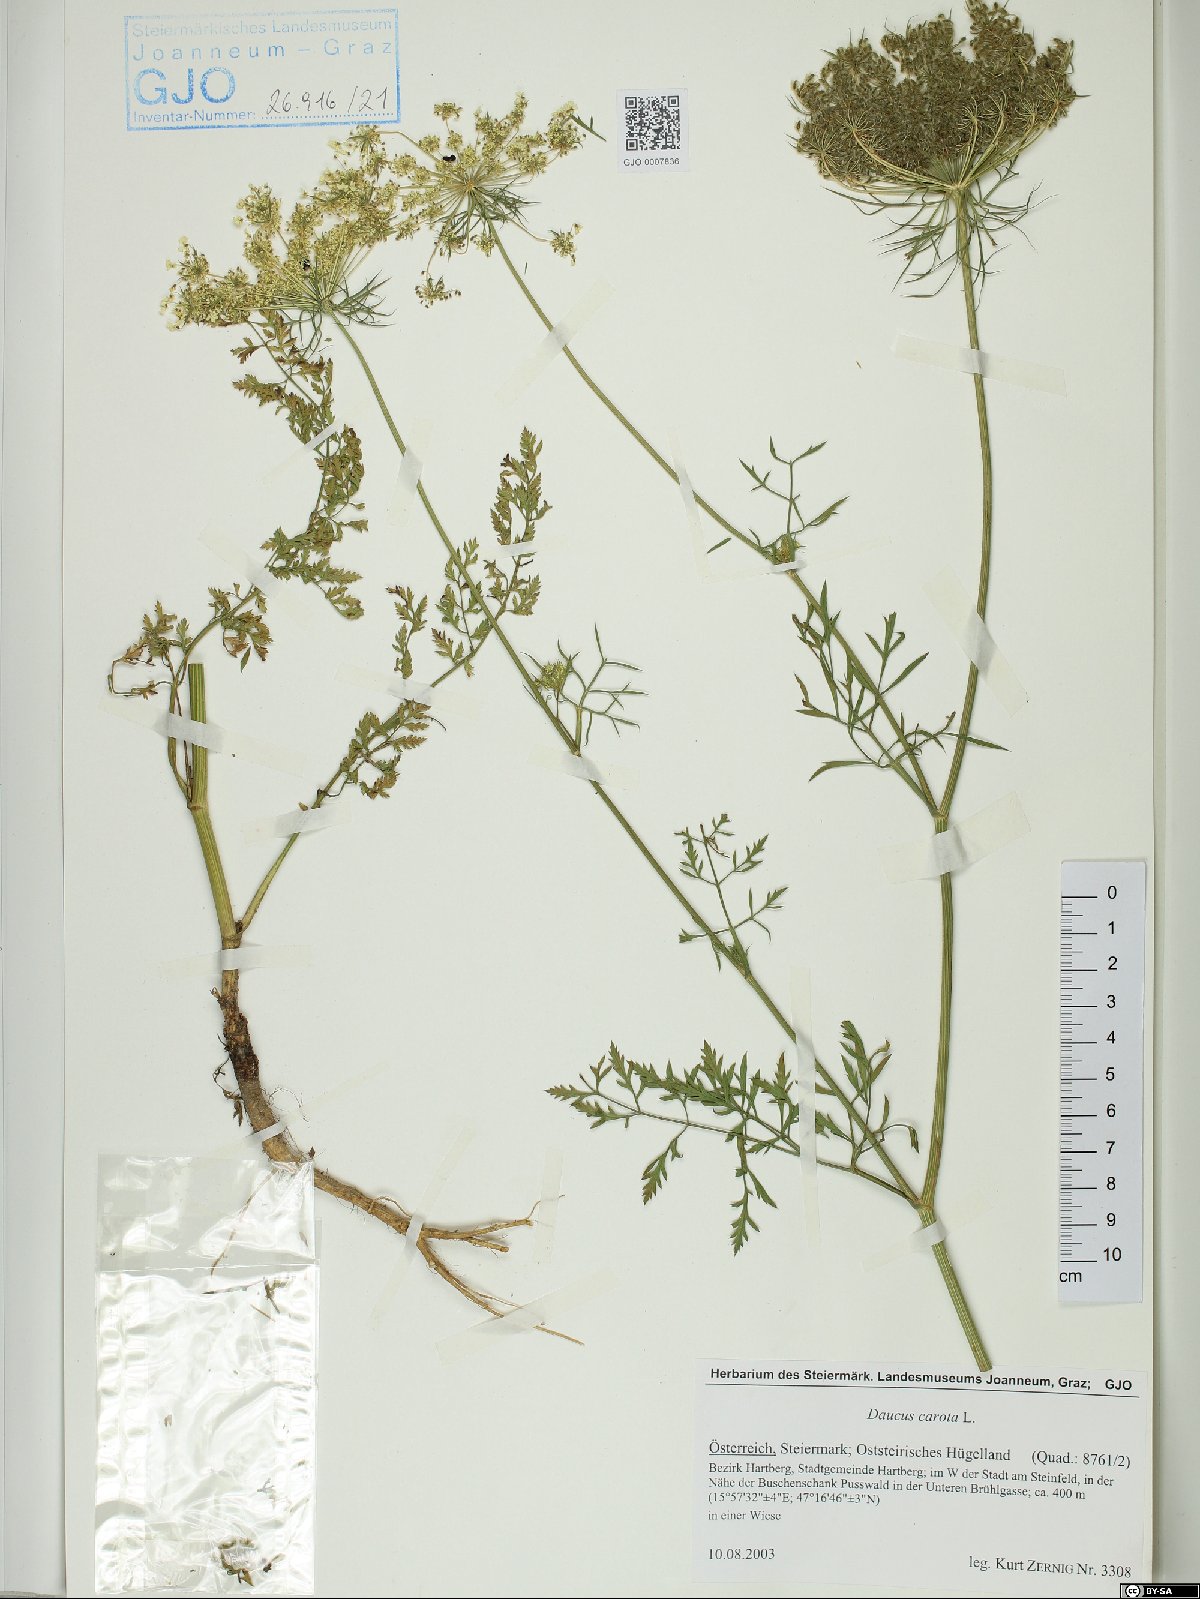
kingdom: Plantae
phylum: Tracheophyta
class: Magnoliopsida
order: Apiales
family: Apiaceae
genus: Daucus
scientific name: Daucus carota
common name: Wild carrot
